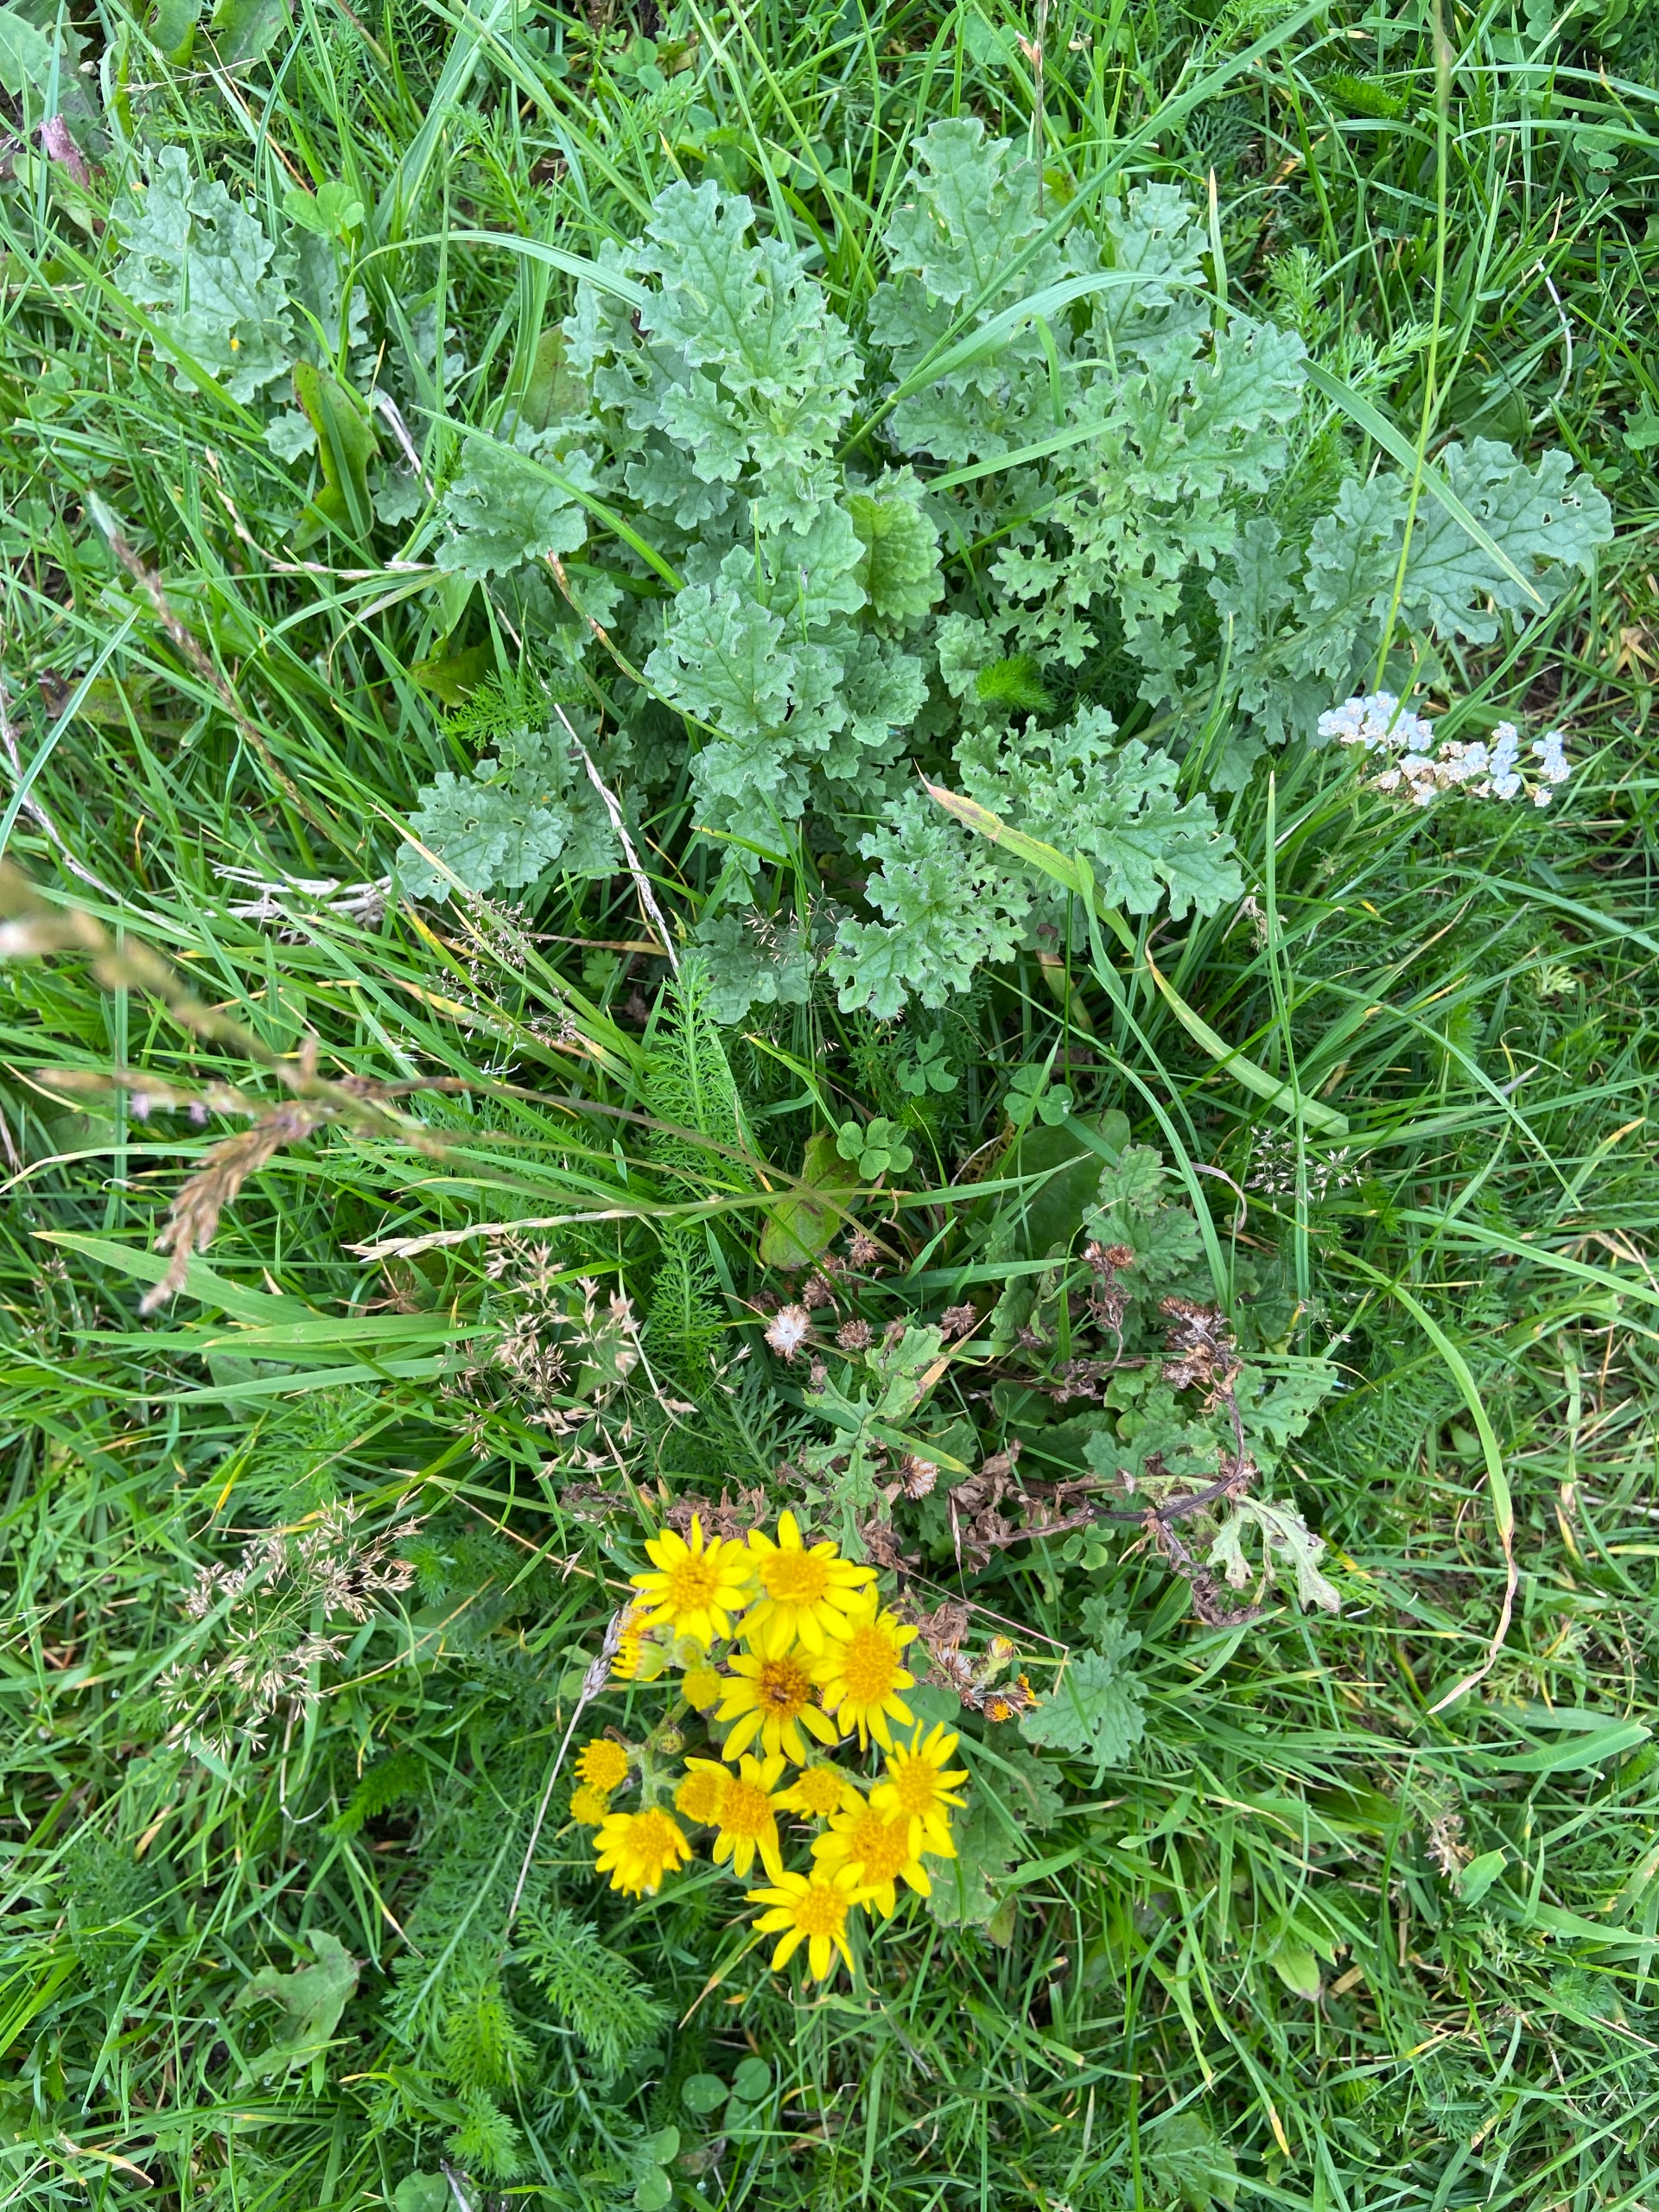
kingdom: Plantae
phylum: Tracheophyta
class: Magnoliopsida
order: Asterales
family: Asteraceae
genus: Jacobaea
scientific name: Jacobaea vulgaris
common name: Eng-brandbæger
